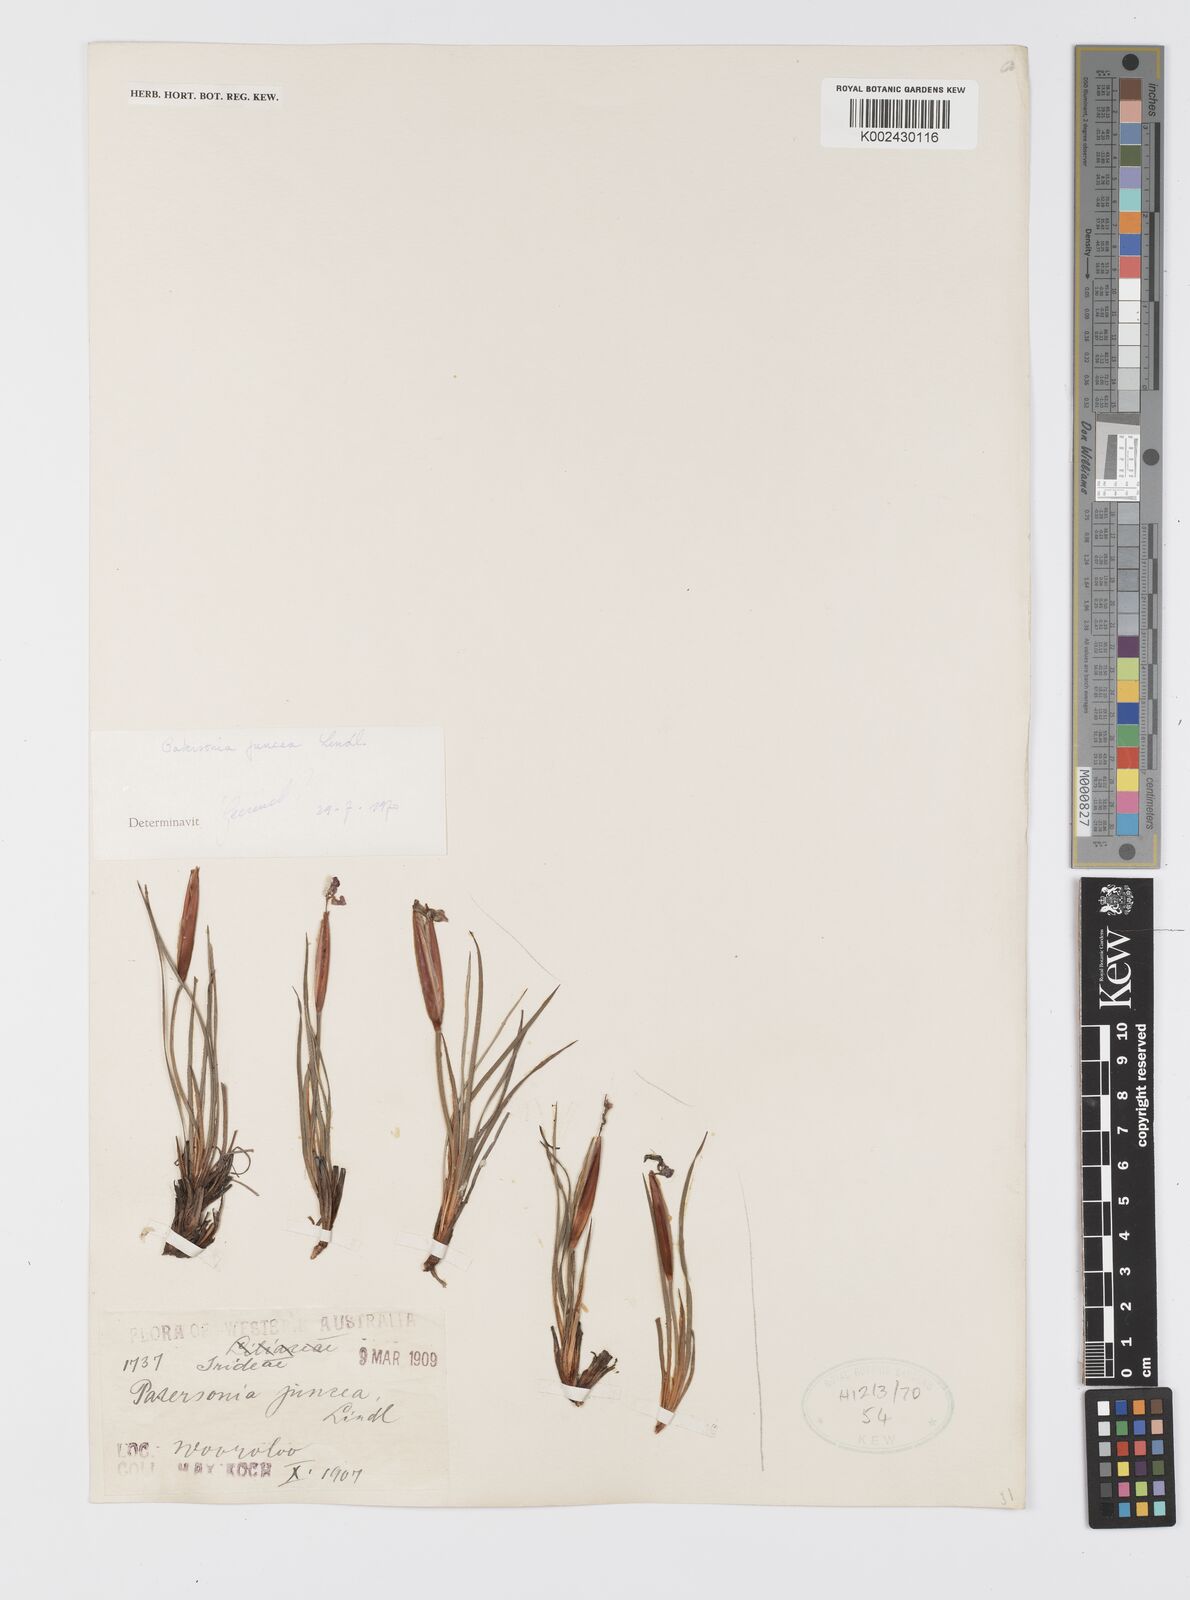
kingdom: Plantae
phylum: Tracheophyta
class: Liliopsida
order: Asparagales
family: Iridaceae
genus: Patersonia
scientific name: Patersonia juncea
